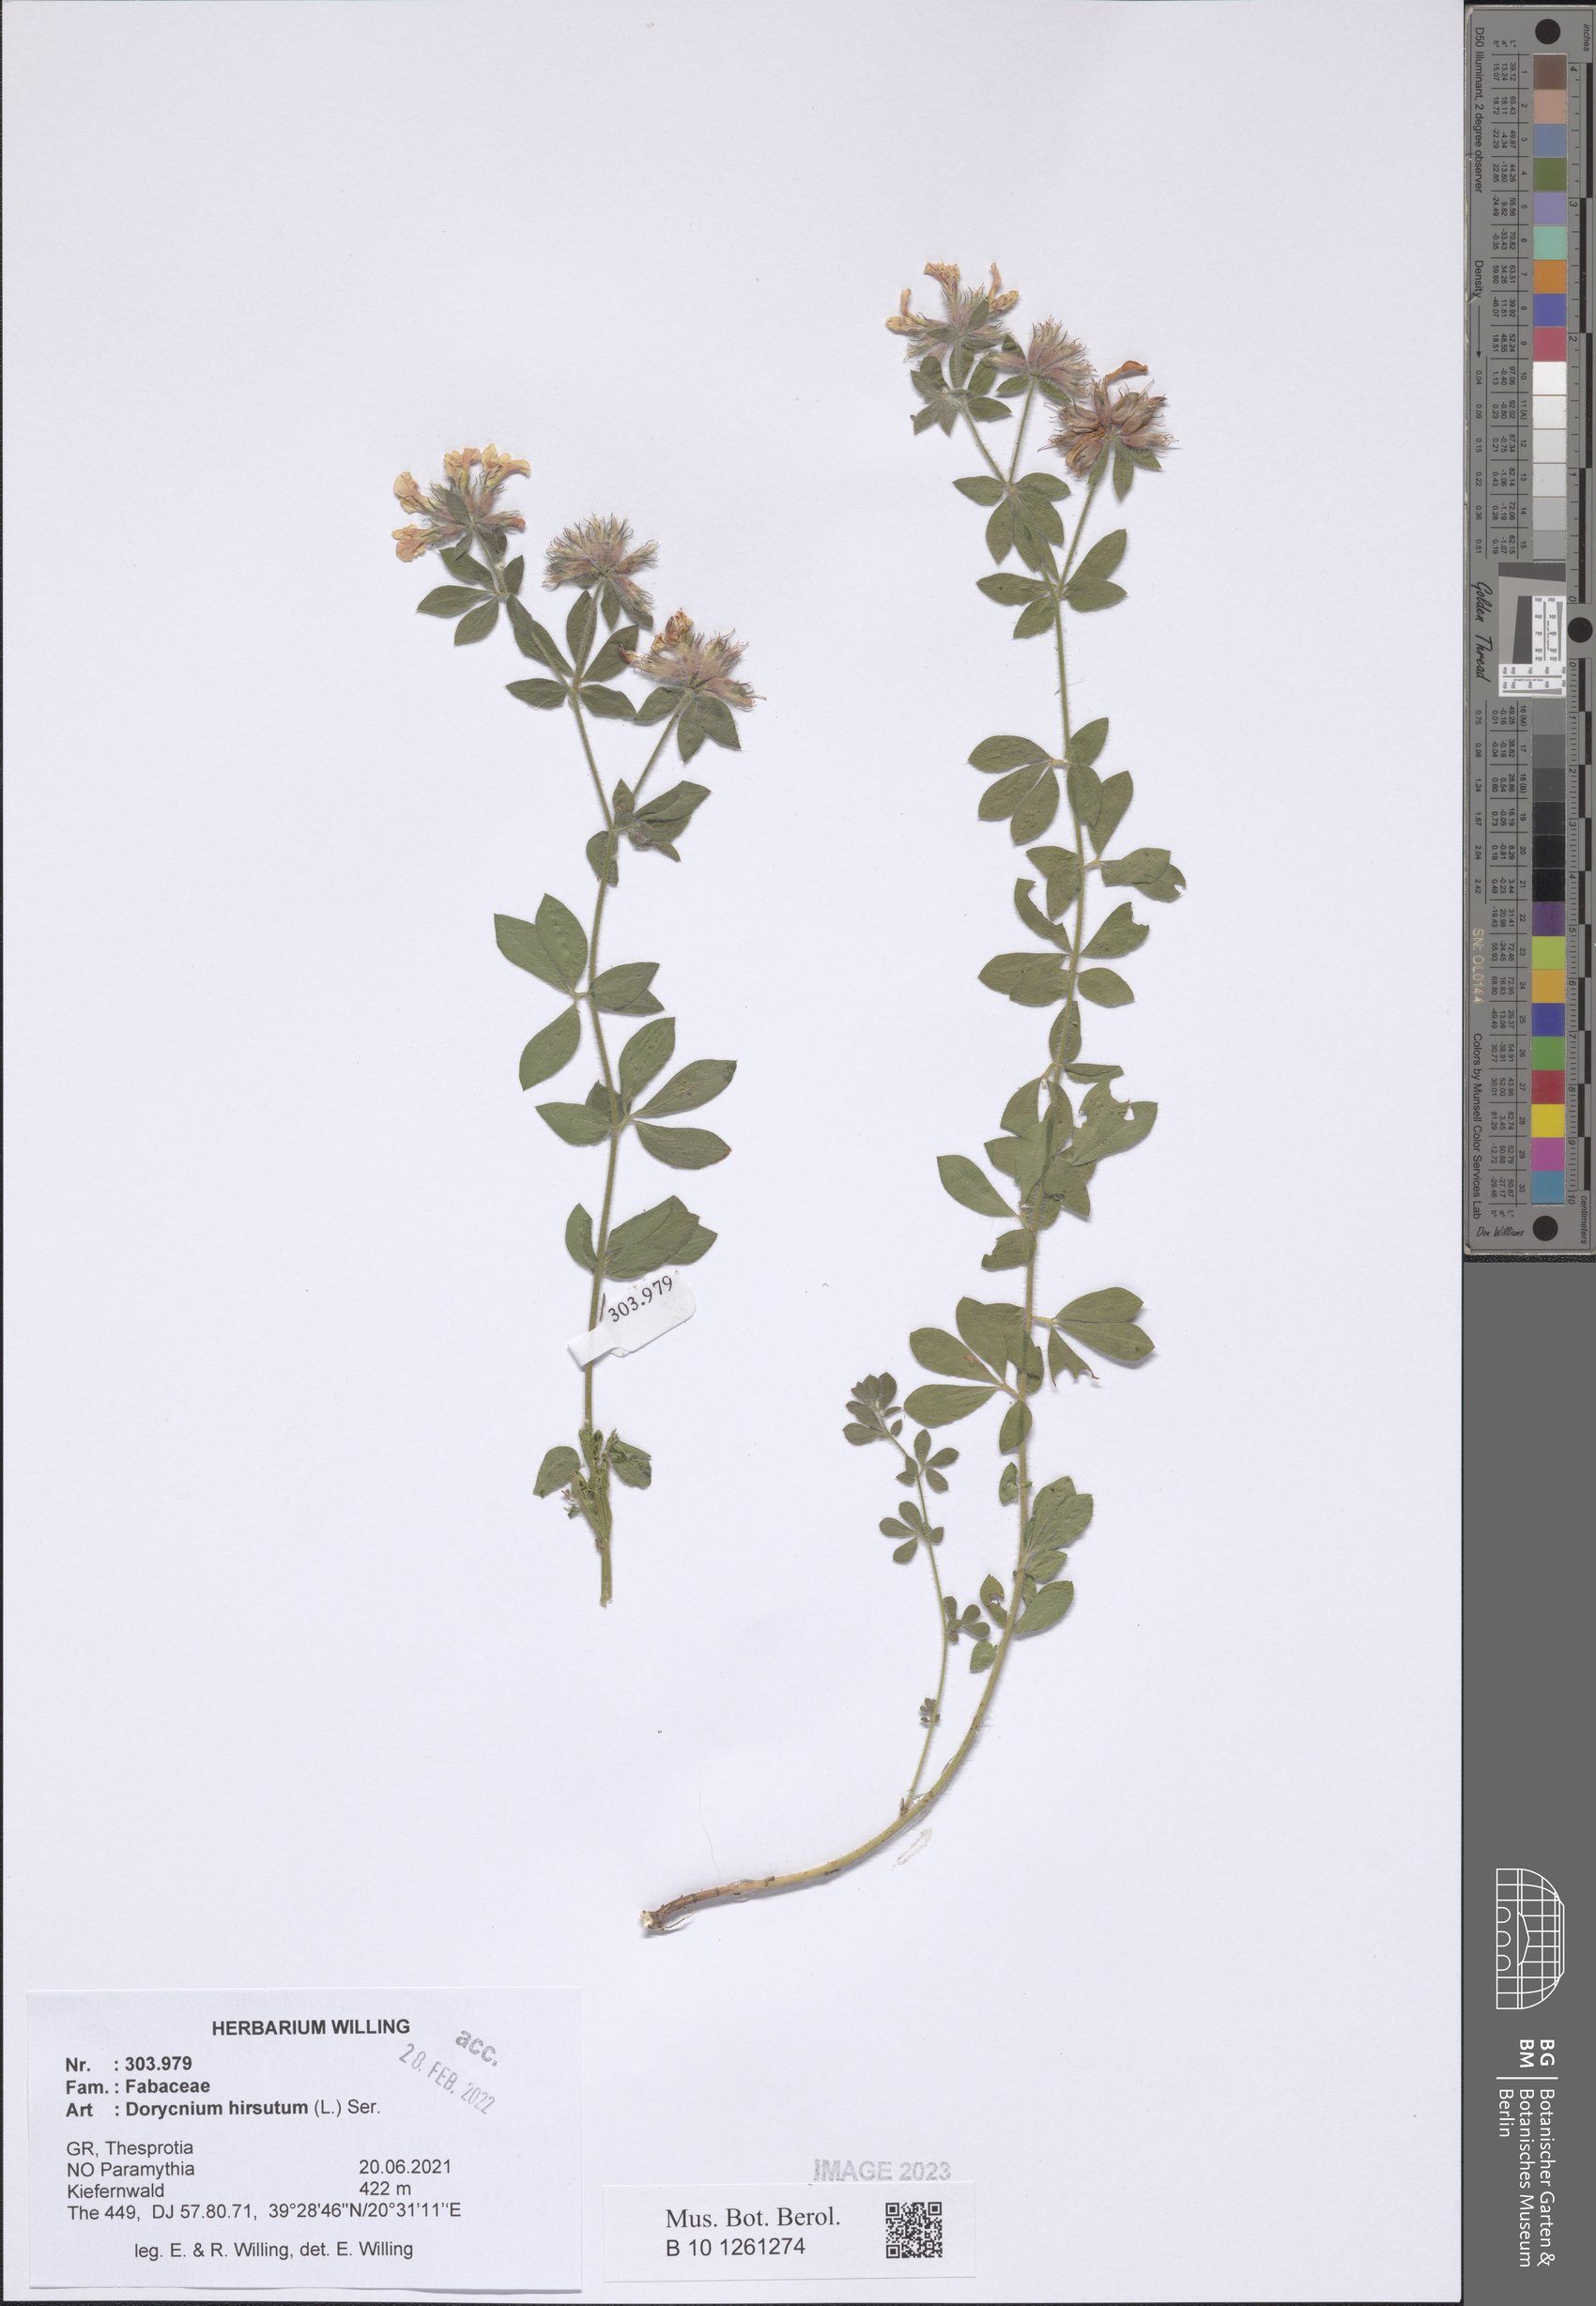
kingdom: Plantae
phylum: Tracheophyta
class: Magnoliopsida
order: Fabales
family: Fabaceae
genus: Lotus
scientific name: Lotus hirsutus
